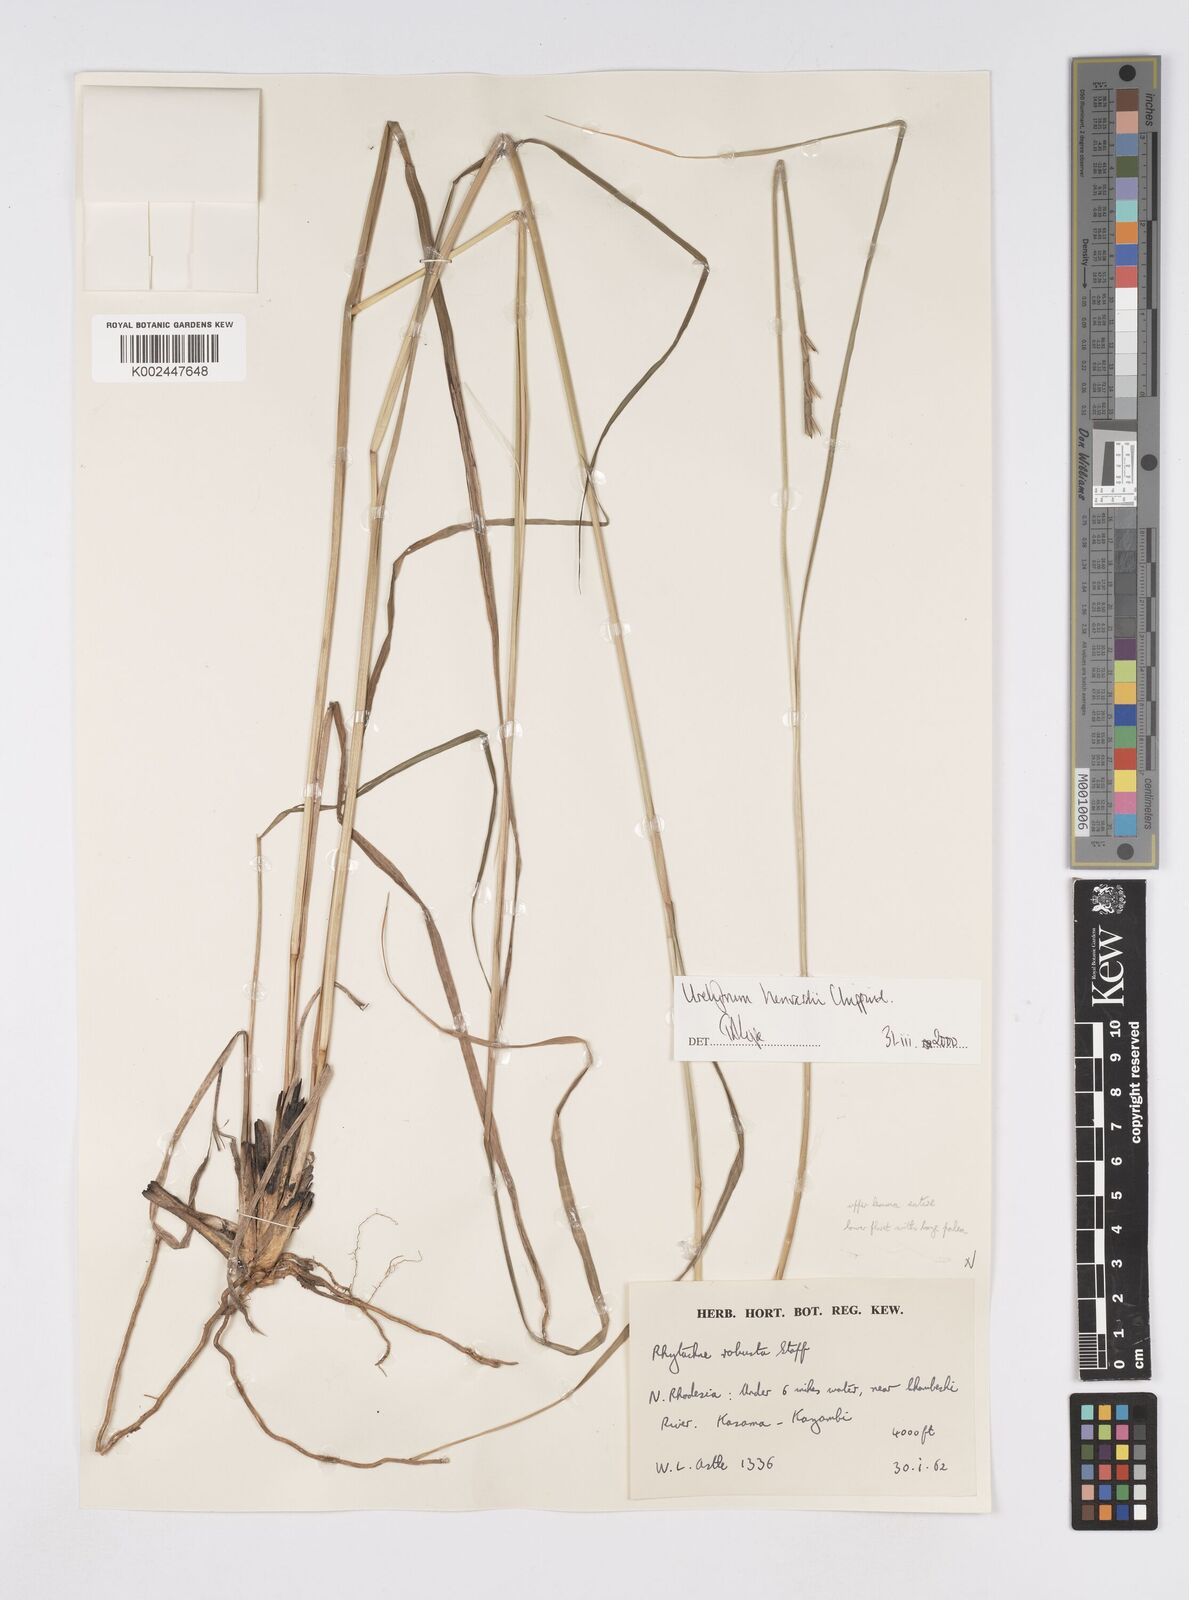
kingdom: Plantae
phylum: Tracheophyta
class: Liliopsida
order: Poales
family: Poaceae
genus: Urelytrum
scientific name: Urelytrum henrardii
